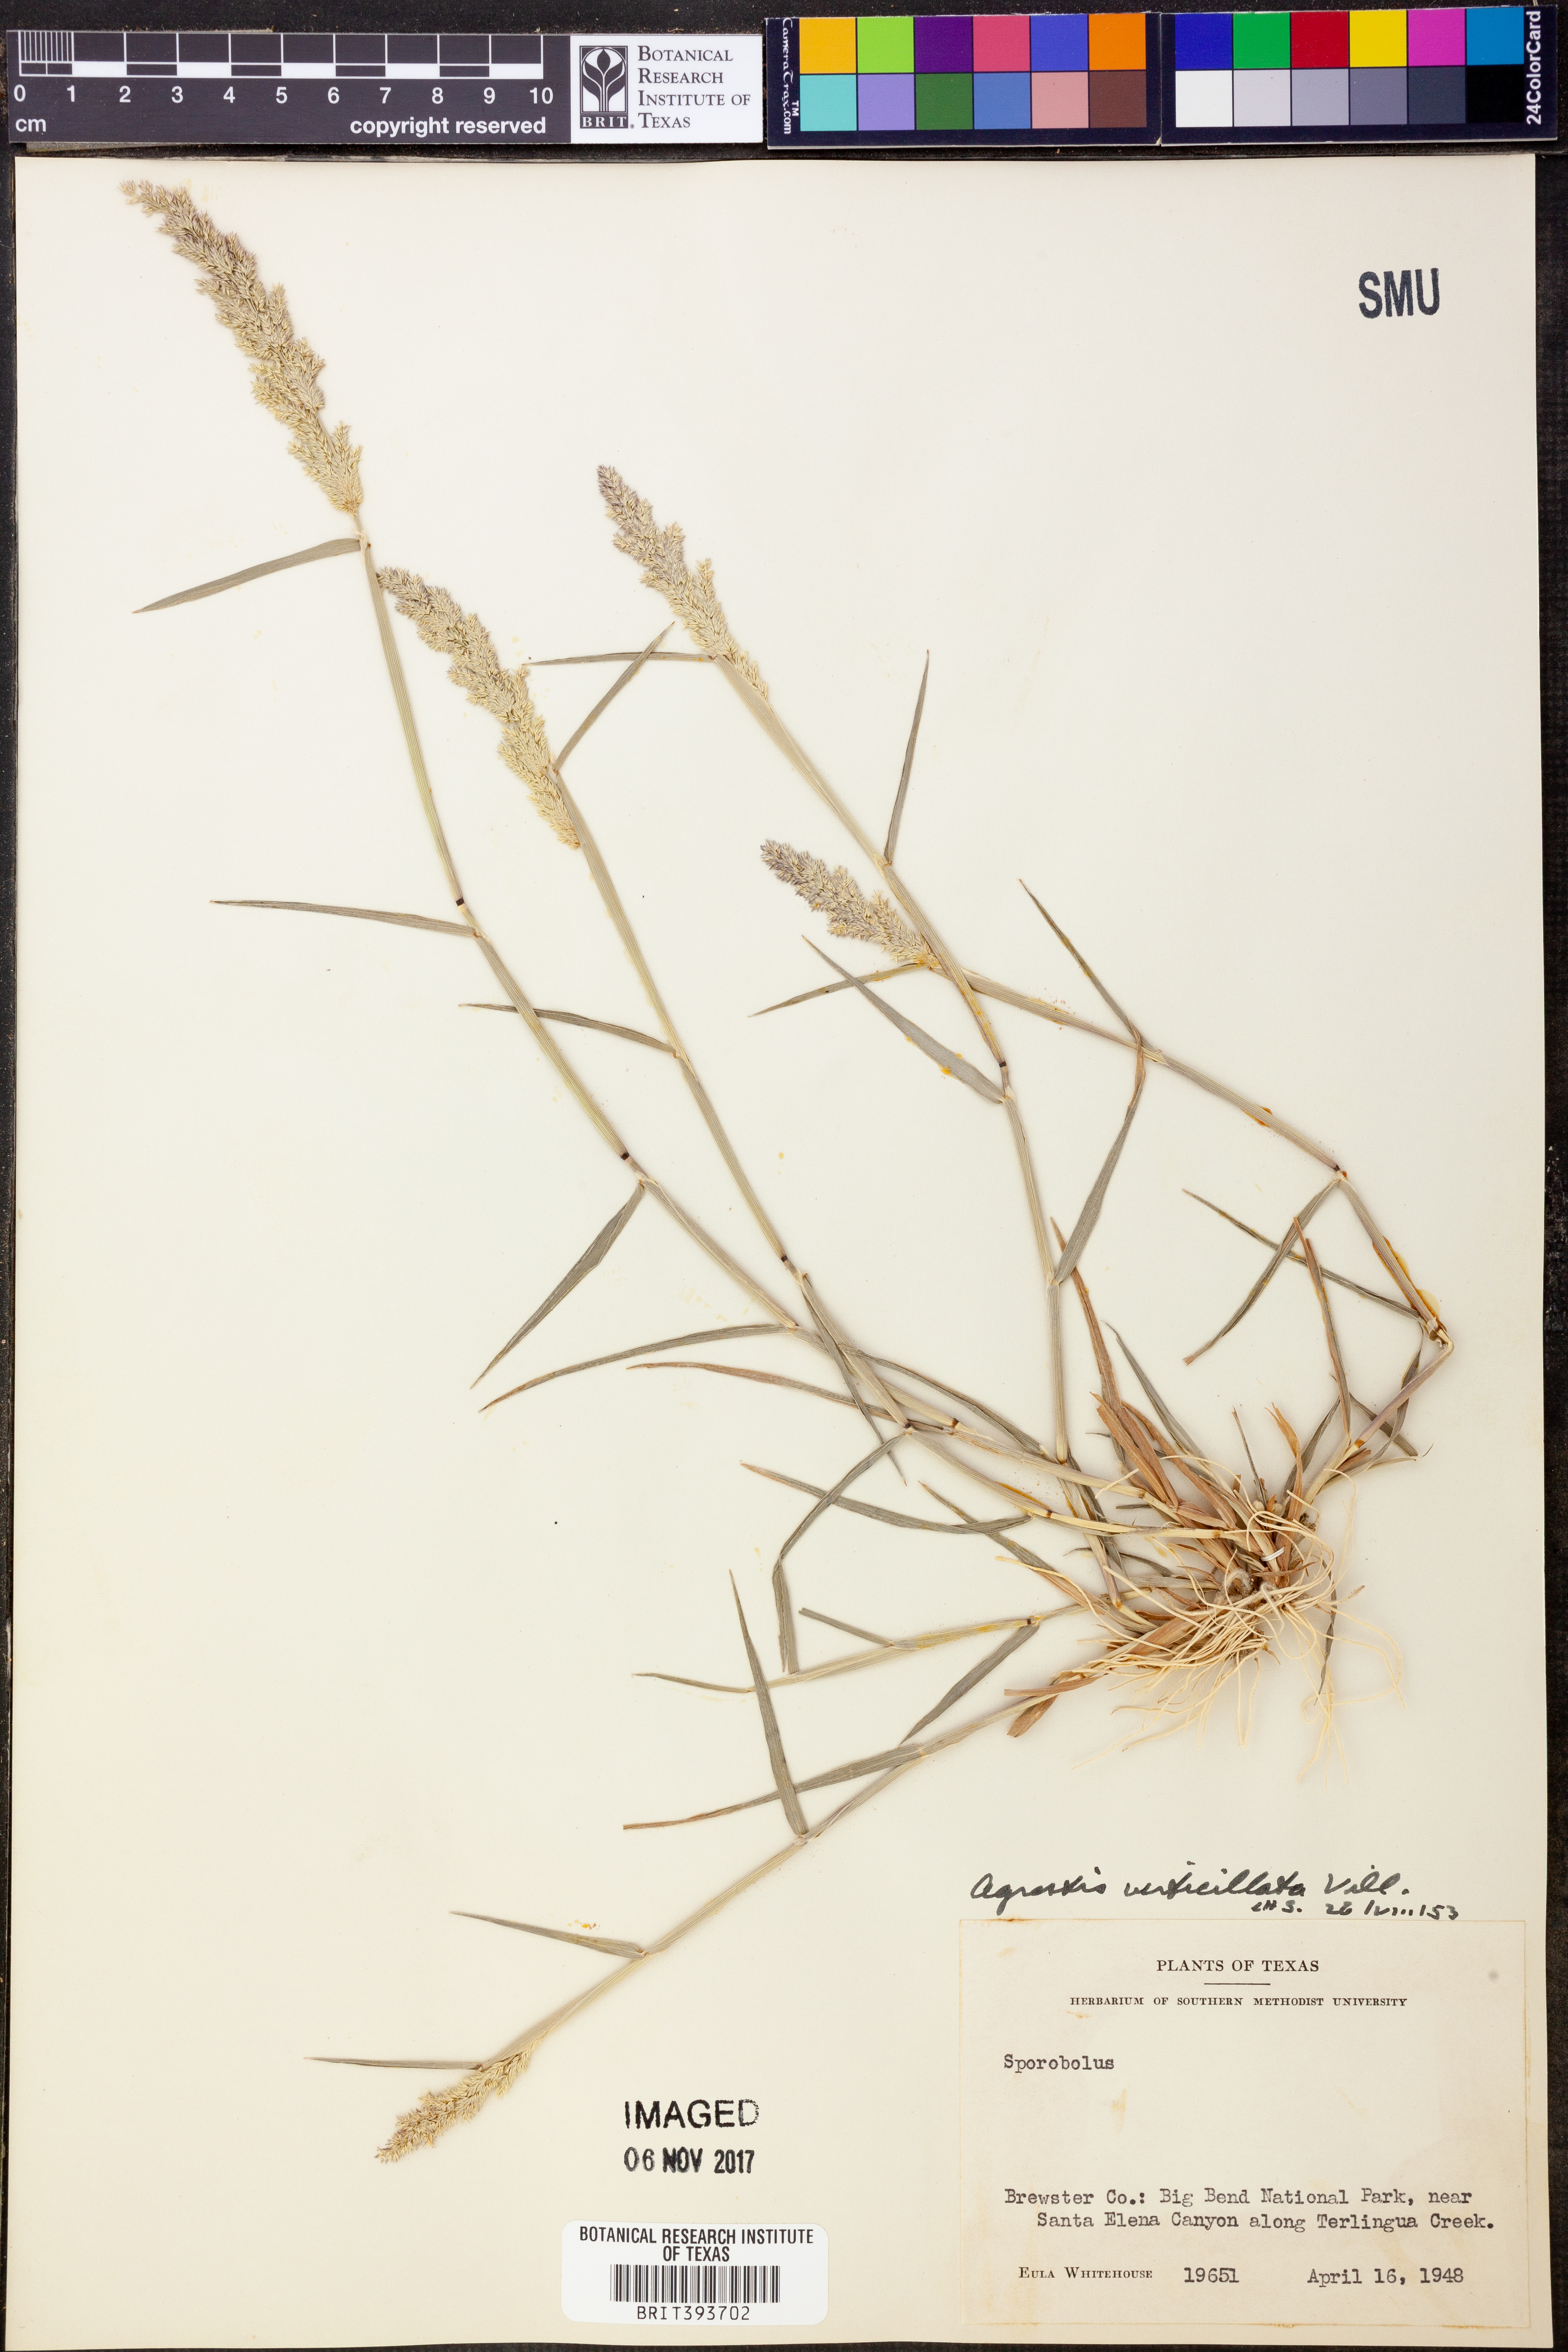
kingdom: Plantae
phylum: Tracheophyta
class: Liliopsida
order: Poales
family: Poaceae
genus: Polypogon
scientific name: Polypogon viridis
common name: Water bent
